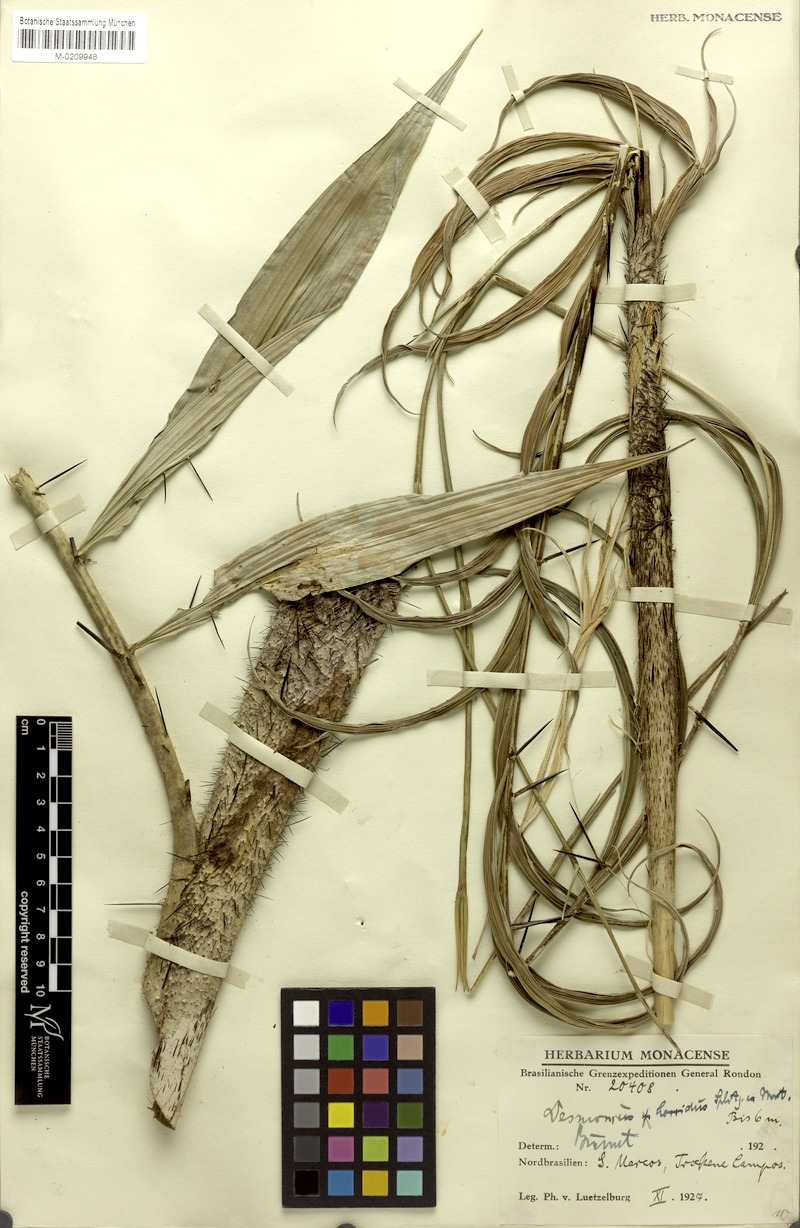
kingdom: Plantae
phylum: Tracheophyta
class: Liliopsida
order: Arecales
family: Arecaceae
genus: Desmoncus
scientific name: Desmoncus orthacanthos
